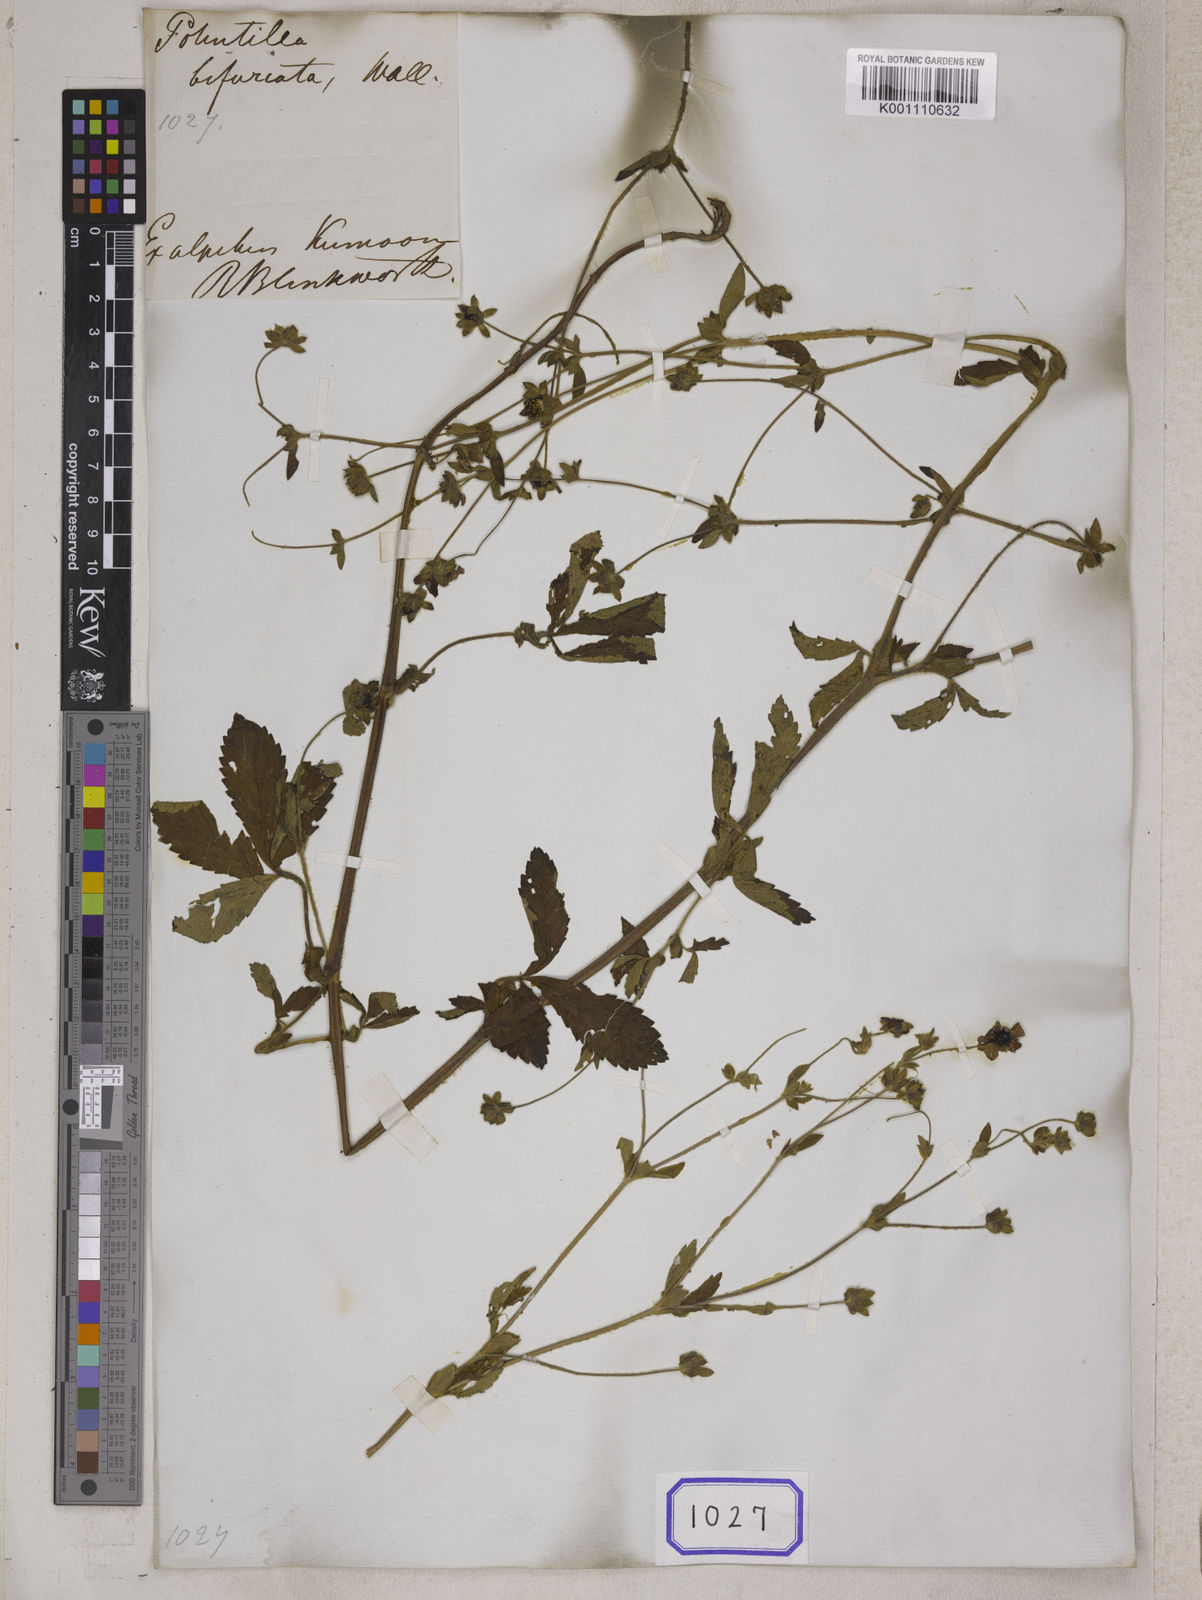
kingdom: Plantae
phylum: Tracheophyta
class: Magnoliopsida
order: Rosales
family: Rosaceae
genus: Potentilla
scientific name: Potentilla nepalensis
